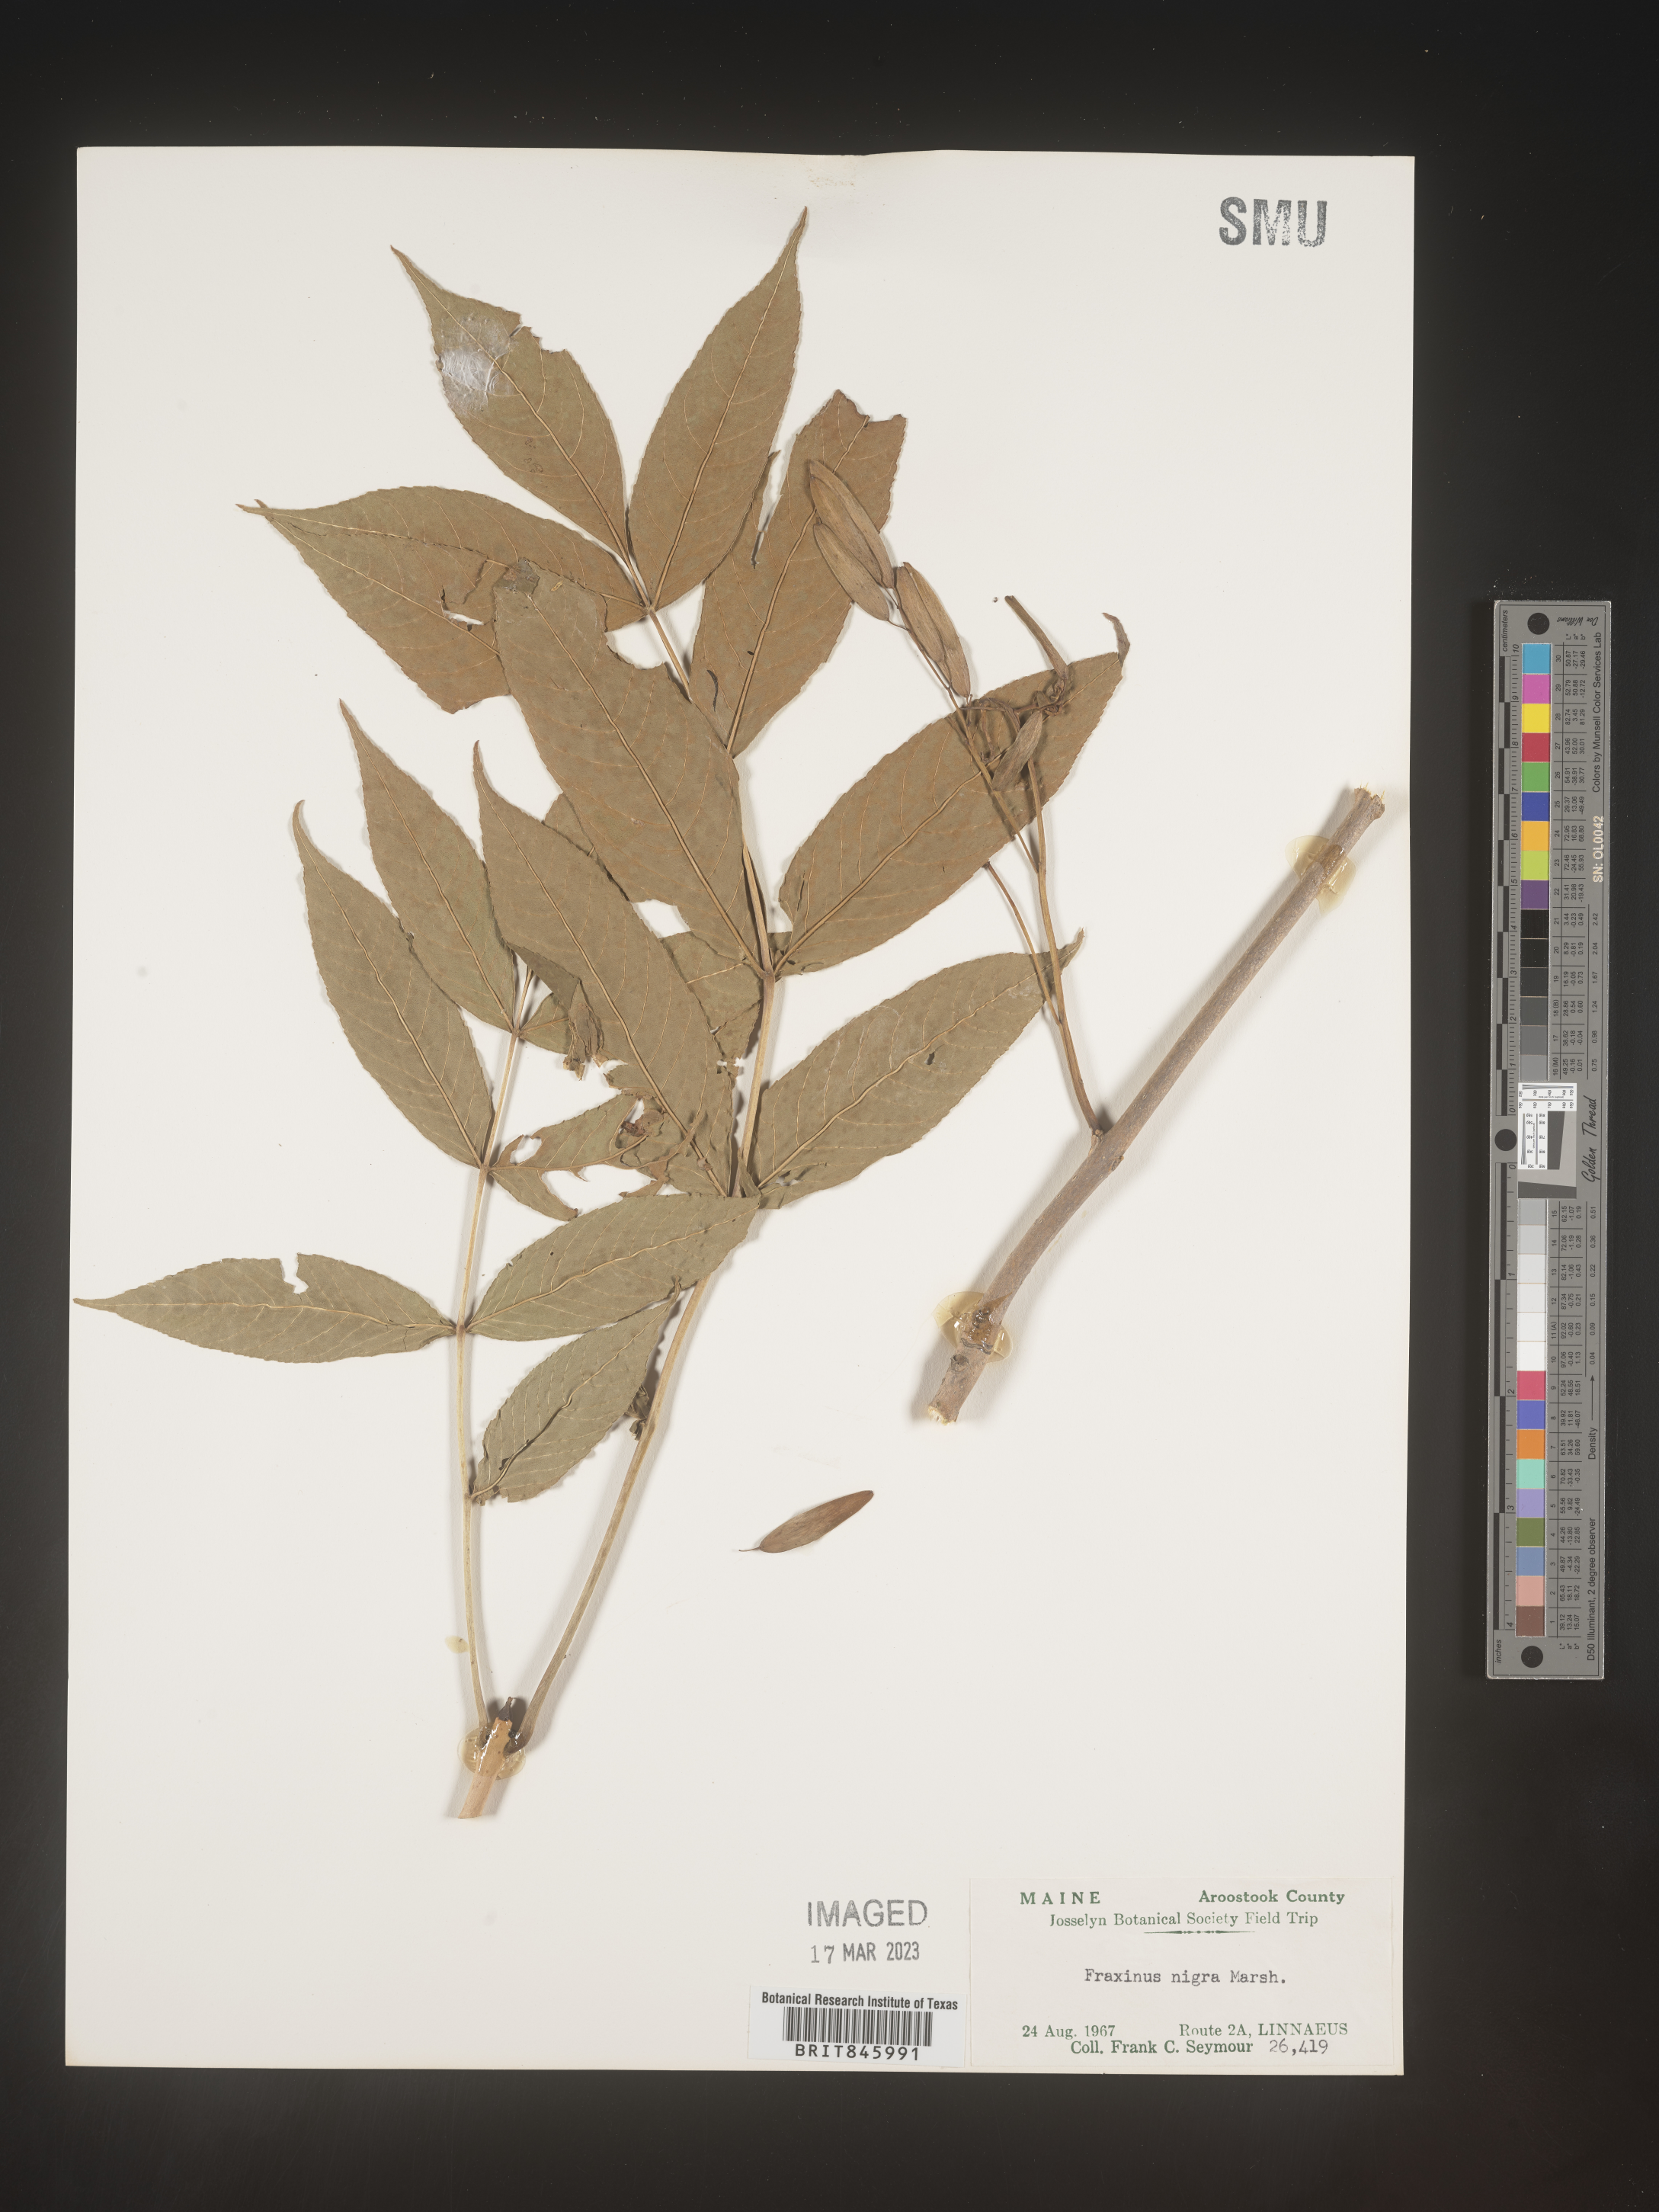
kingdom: Plantae
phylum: Tracheophyta
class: Magnoliopsida
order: Lamiales
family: Oleaceae
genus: Fraxinus
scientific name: Fraxinus nigra
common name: Black ash
